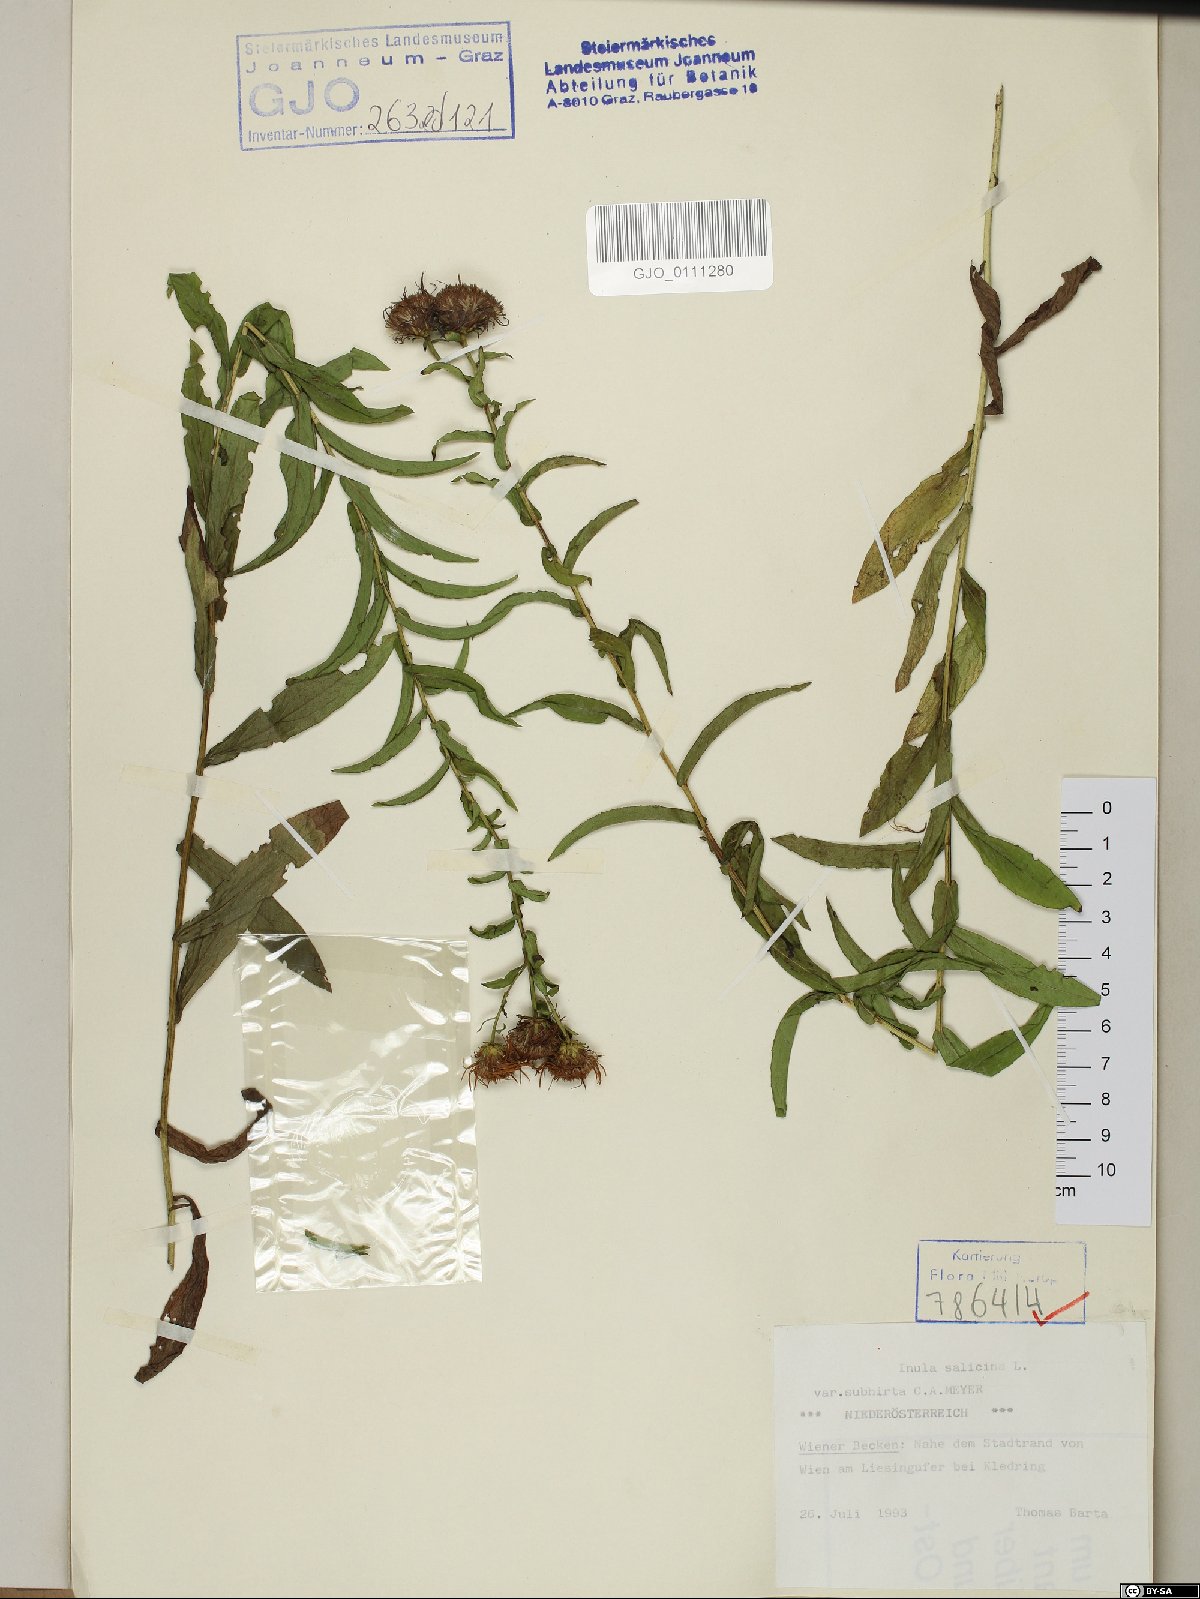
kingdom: Plantae
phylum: Tracheophyta
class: Magnoliopsida
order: Asterales
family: Asteraceae
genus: Pentanema
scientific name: Pentanema salicinum
